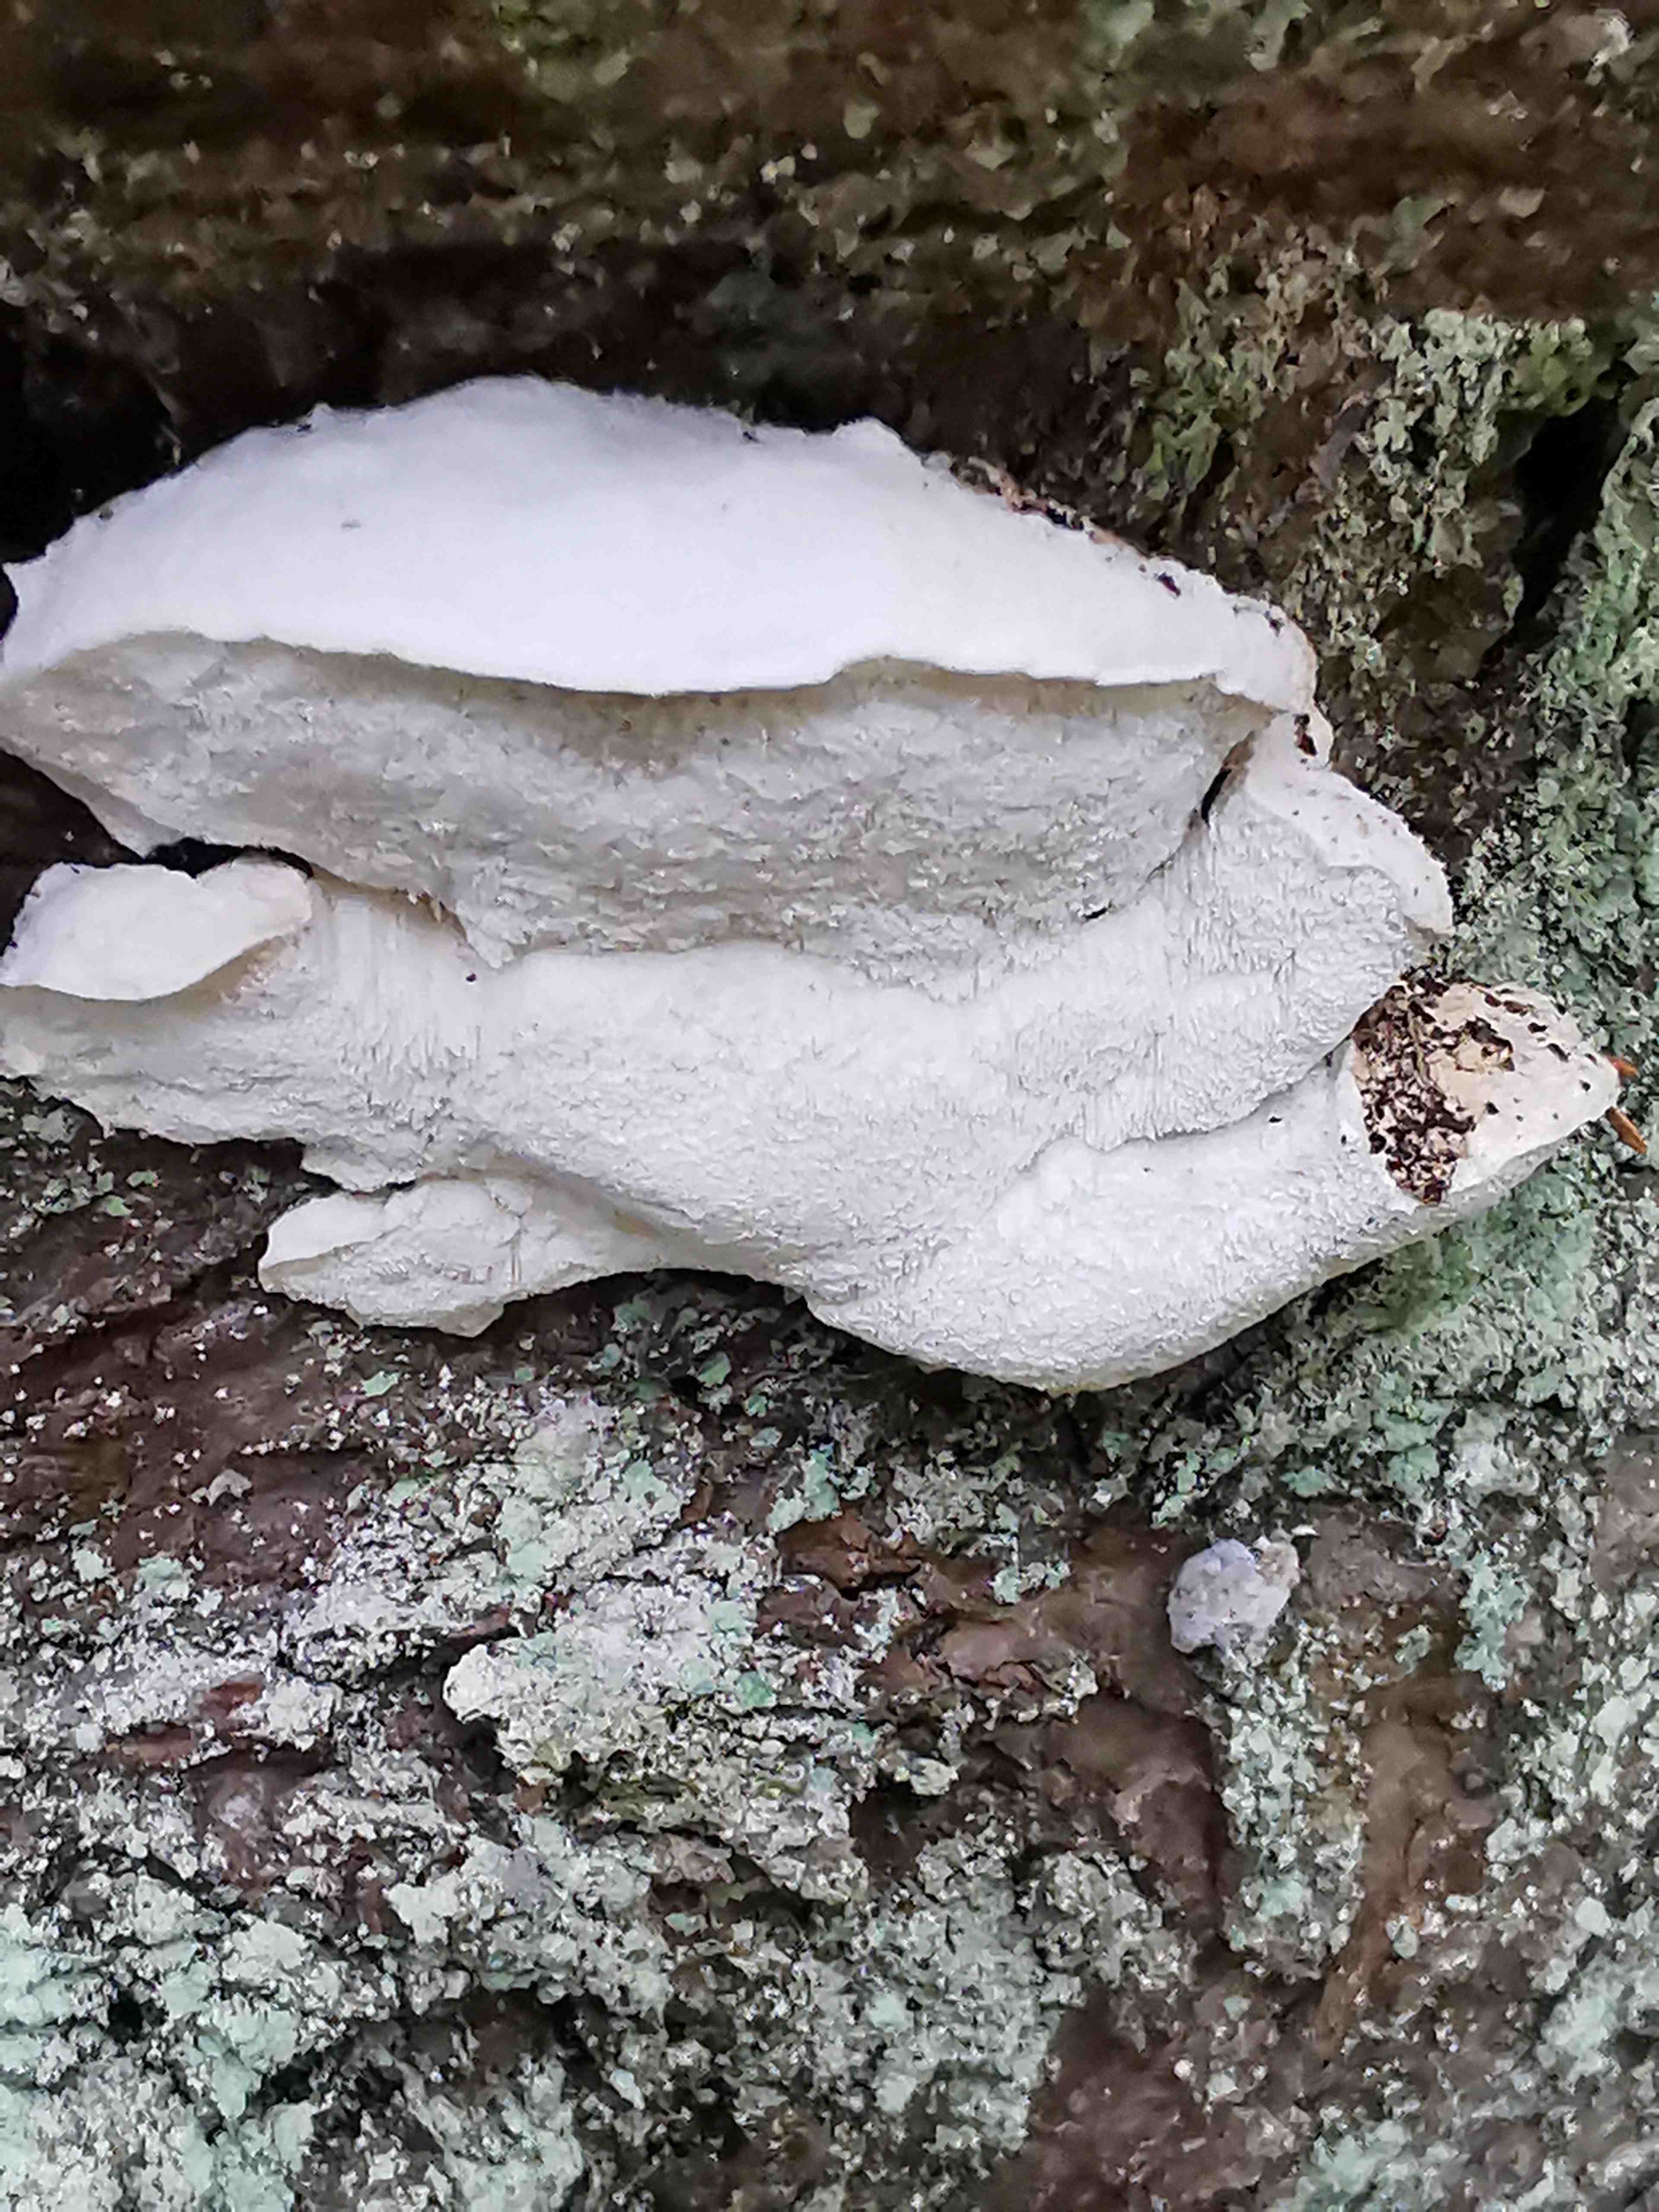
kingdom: Fungi
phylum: Basidiomycota
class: Agaricomycetes
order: Polyporales
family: Incrustoporiaceae
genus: Tyromyces
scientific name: Tyromyces lacteus
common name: mælkehvid kødporesvamp
